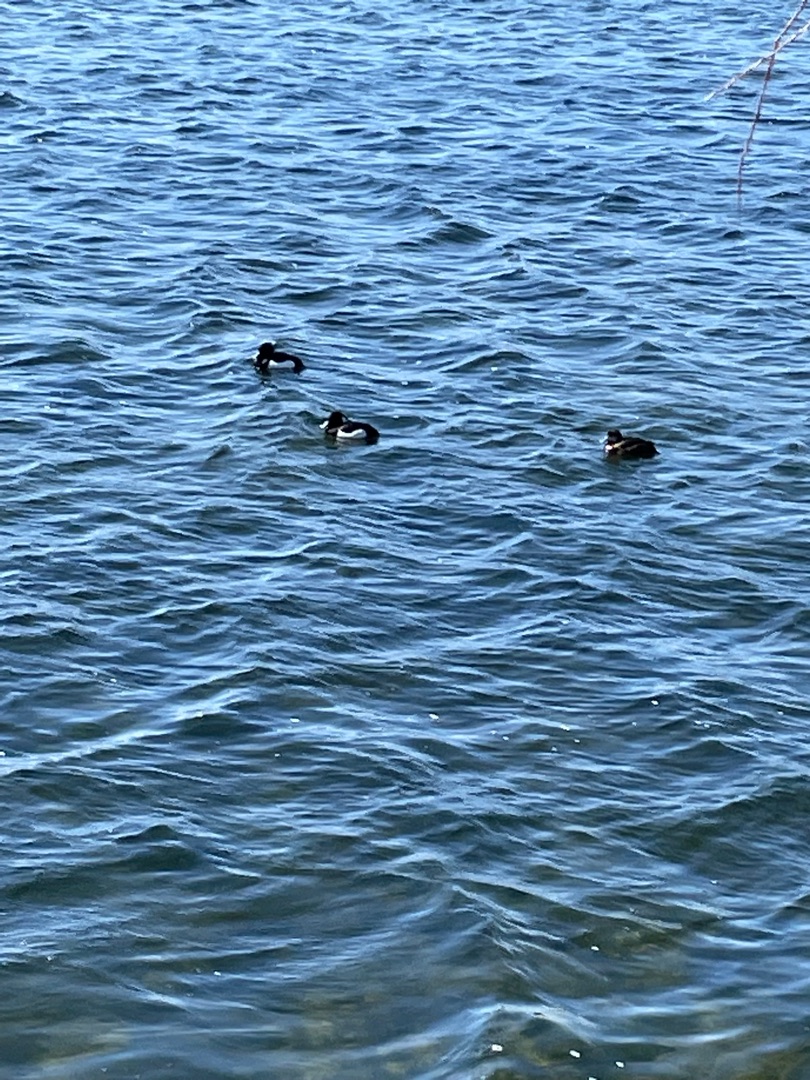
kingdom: Animalia
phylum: Chordata
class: Aves
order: Anseriformes
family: Anatidae
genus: Aythya
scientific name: Aythya fuligula
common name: Troldand
